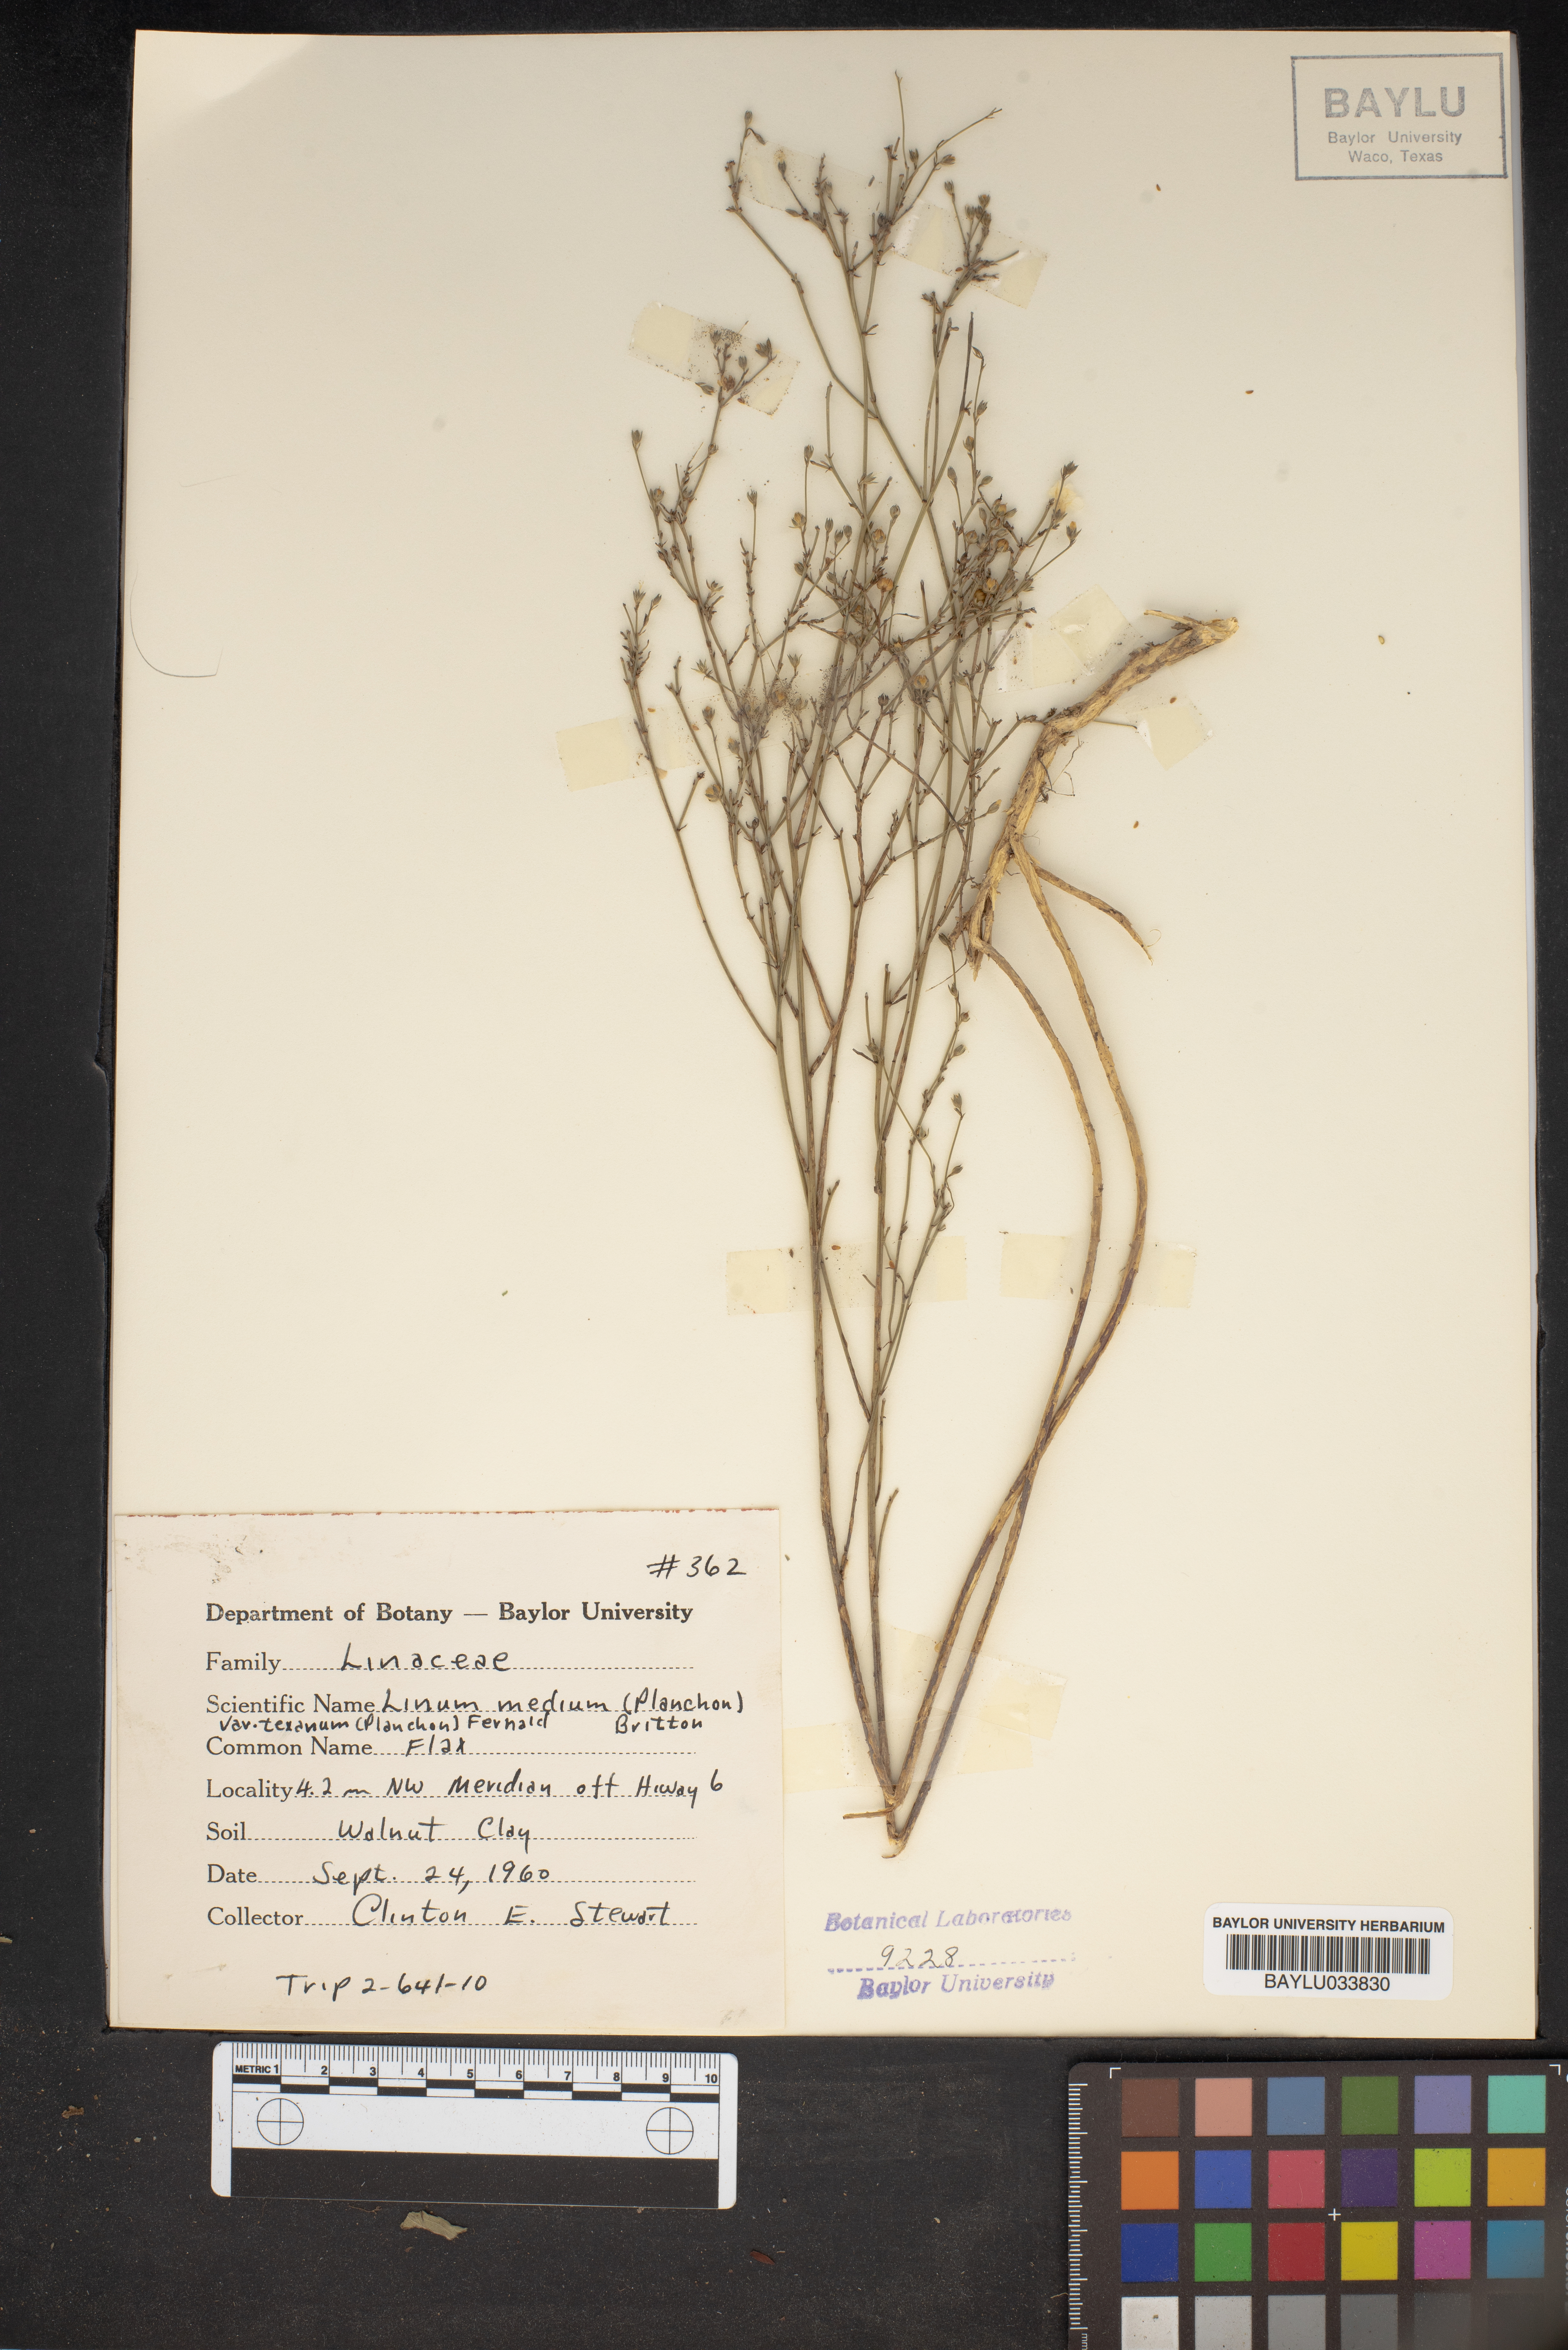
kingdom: Plantae
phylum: Tracheophyta
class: Magnoliopsida
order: Malpighiales
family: Linaceae
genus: Linum
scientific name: Linum medium
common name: Stiff yellow flax
